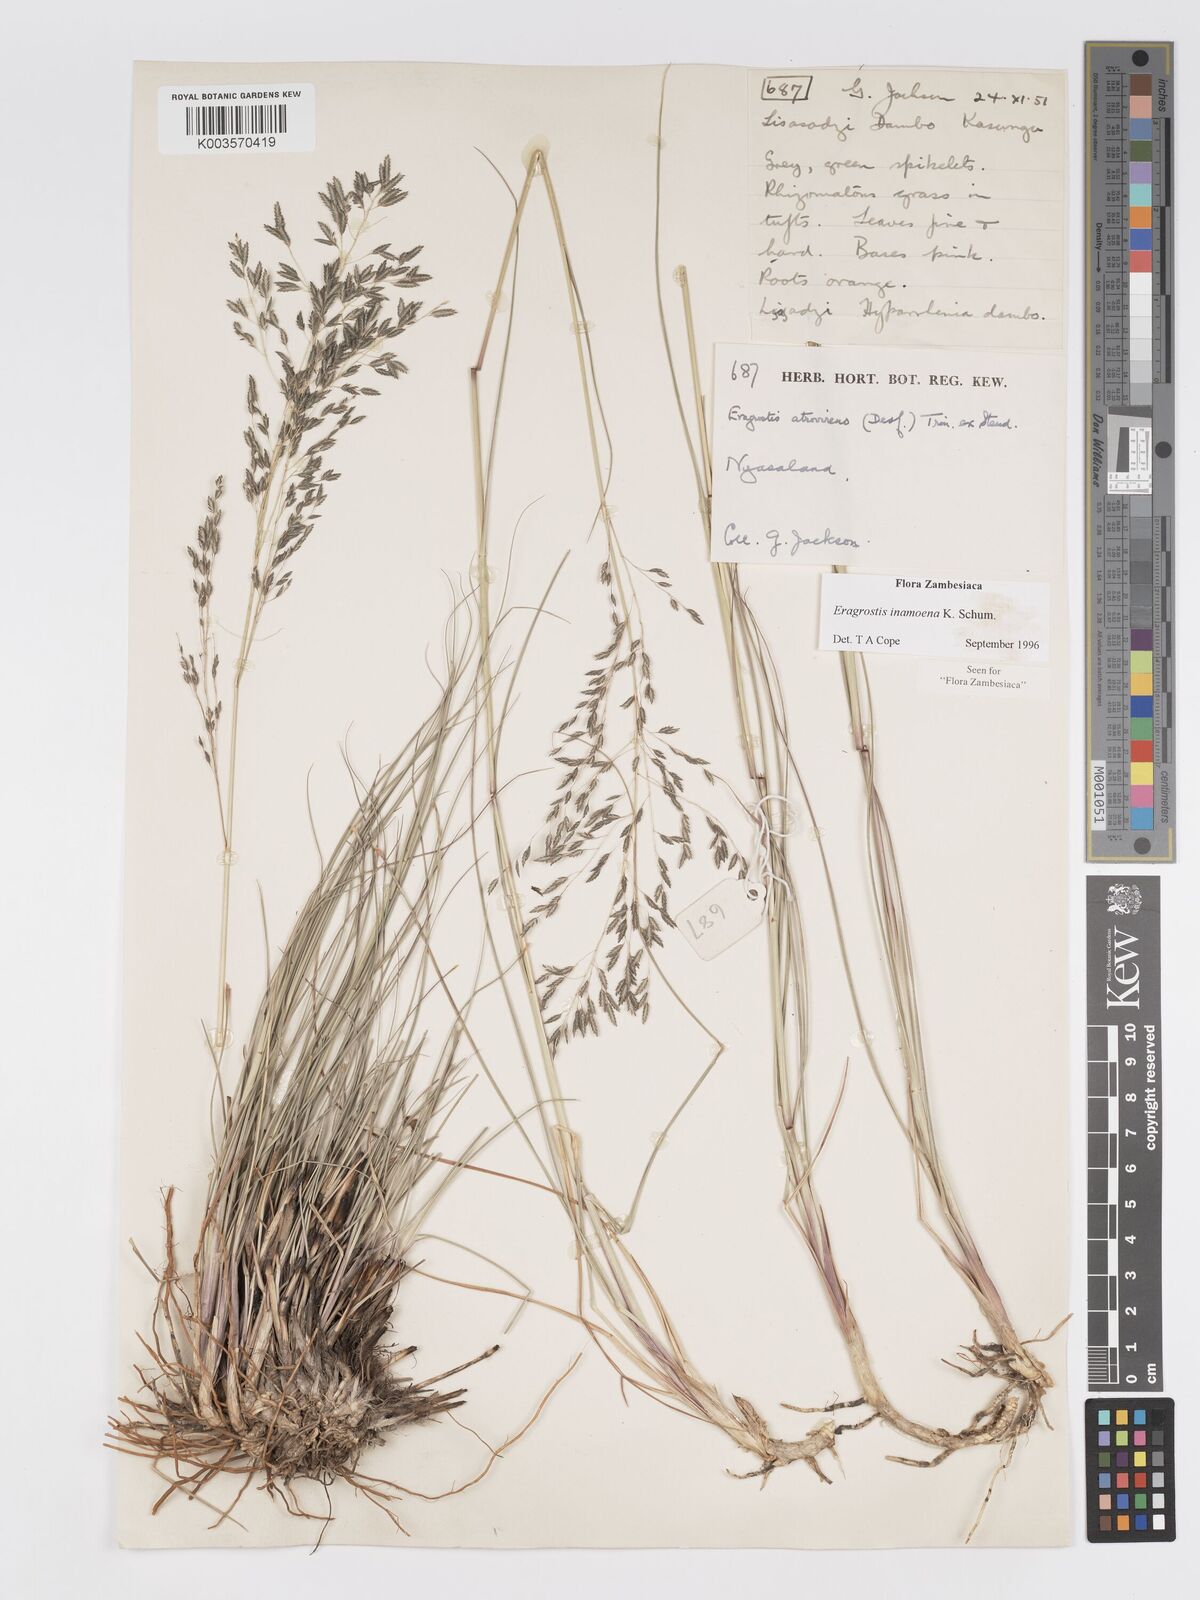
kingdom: Plantae
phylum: Tracheophyta
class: Liliopsida
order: Poales
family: Poaceae
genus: Eragrostis
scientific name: Eragrostis inamoena
